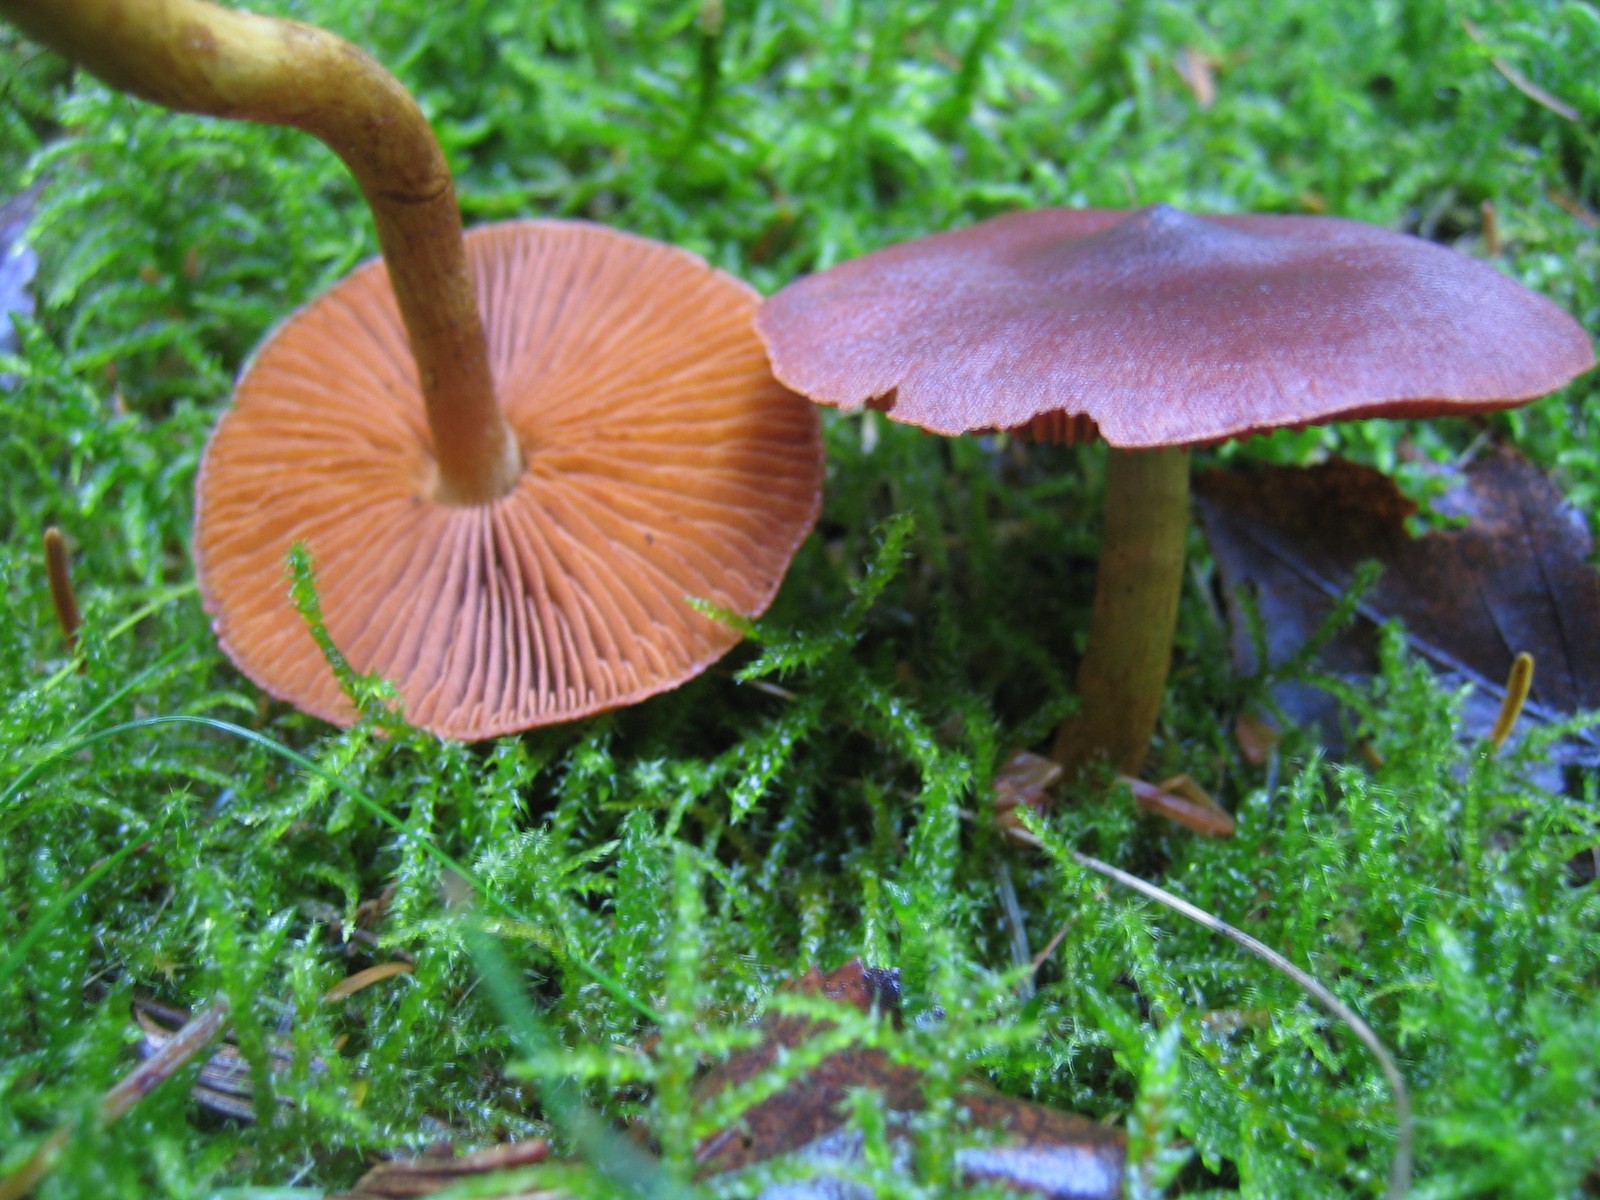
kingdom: Fungi
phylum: Basidiomycota
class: Agaricomycetes
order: Agaricales
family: Cortinariaceae
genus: Cortinarius
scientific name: Cortinarius
